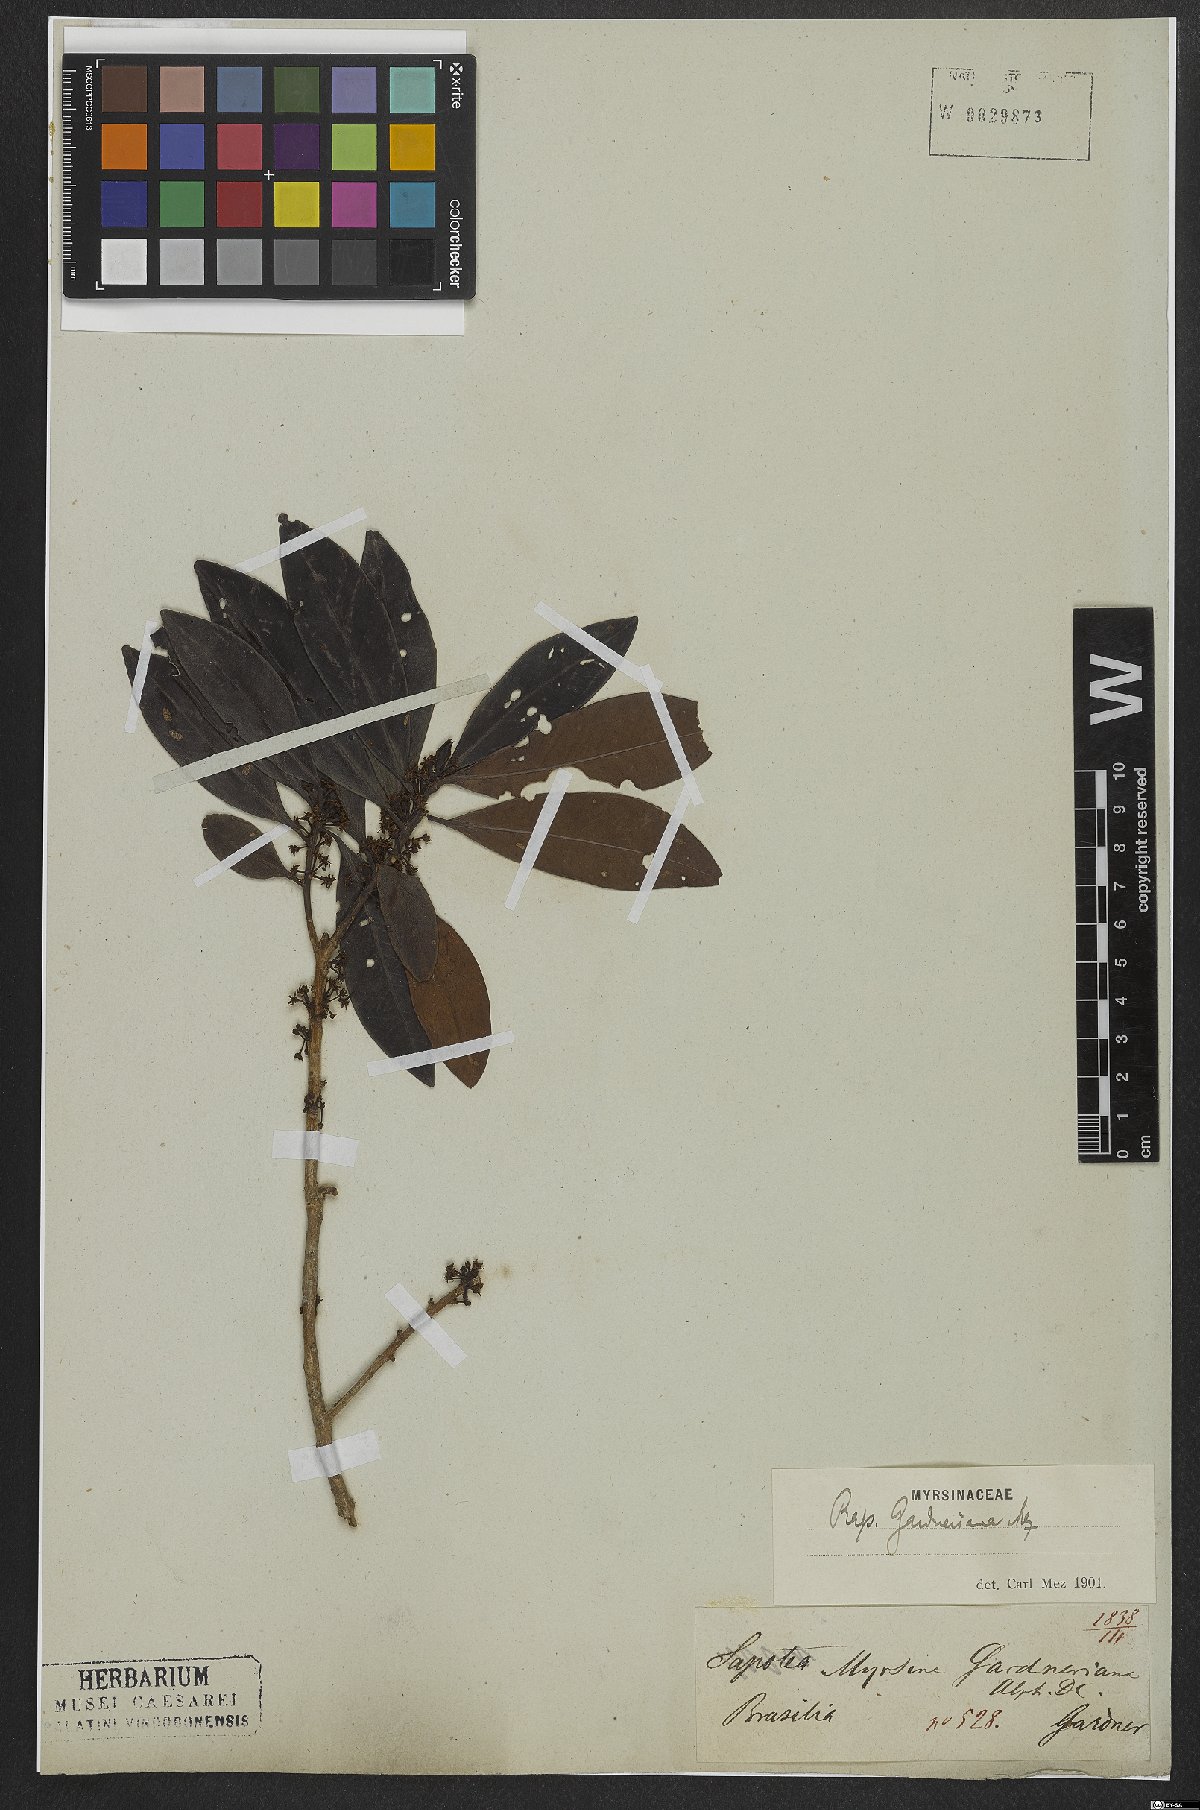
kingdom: Plantae
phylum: Tracheophyta
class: Magnoliopsida
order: Ericales
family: Primulaceae
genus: Myrsine
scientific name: Myrsine gardneriana
